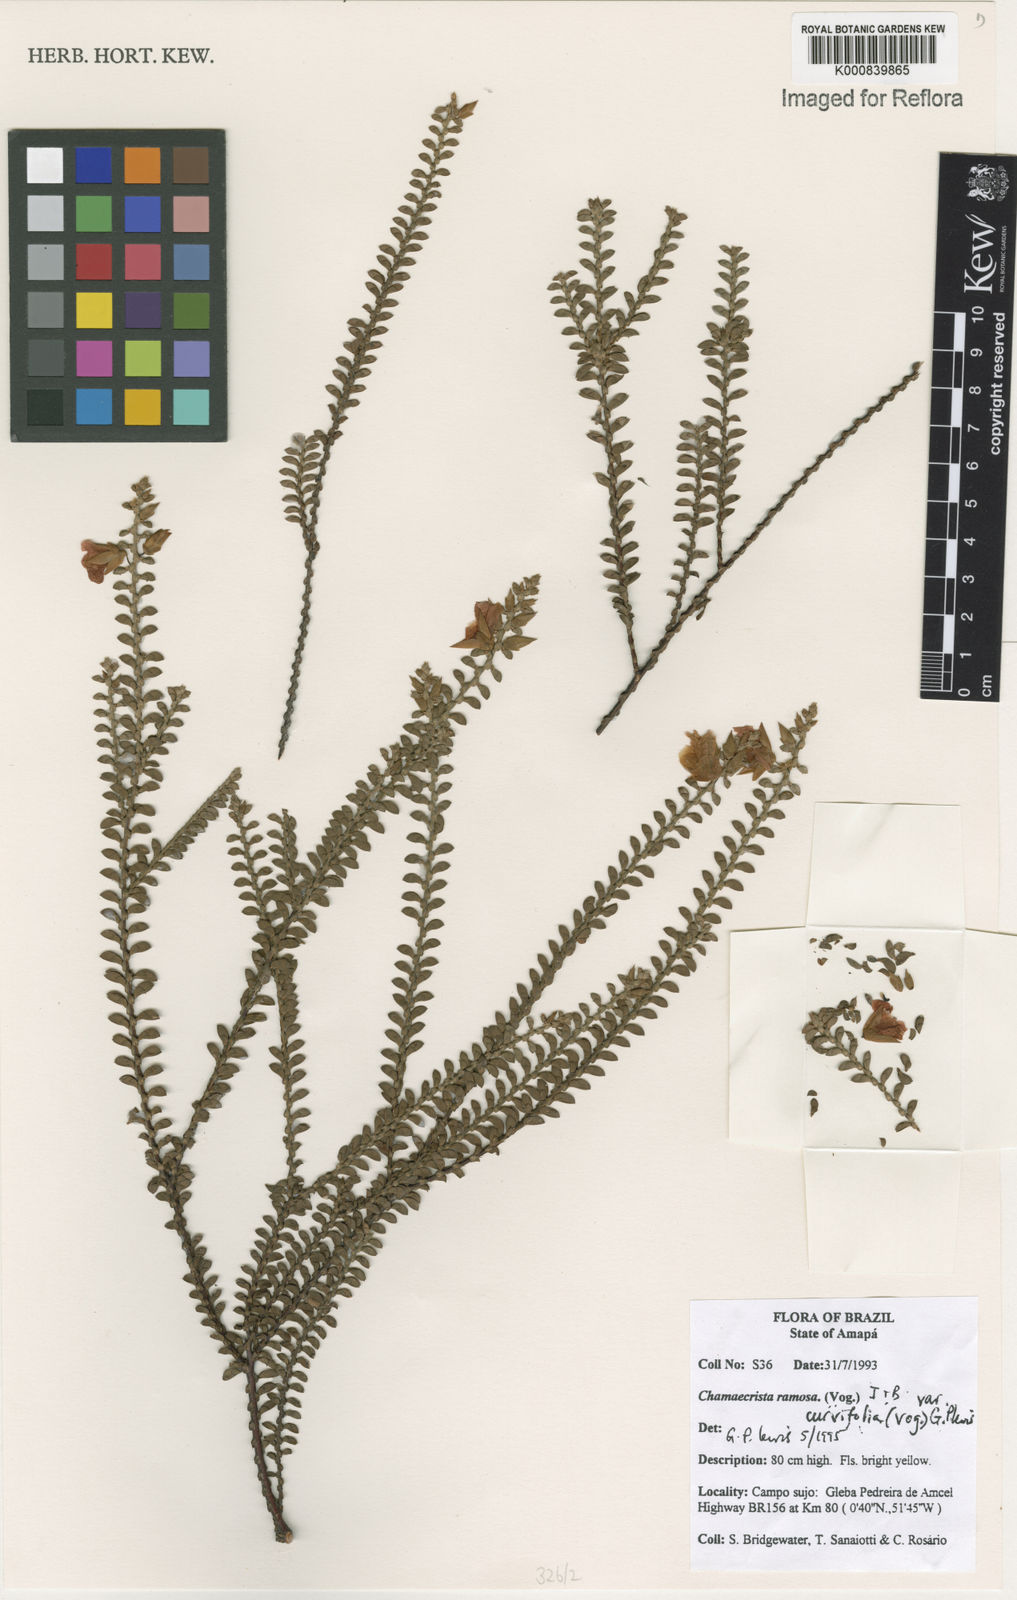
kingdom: Plantae
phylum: Tracheophyta
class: Magnoliopsida
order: Fabales
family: Fabaceae
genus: Chamaecrista
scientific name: Chamaecrista ramosa
